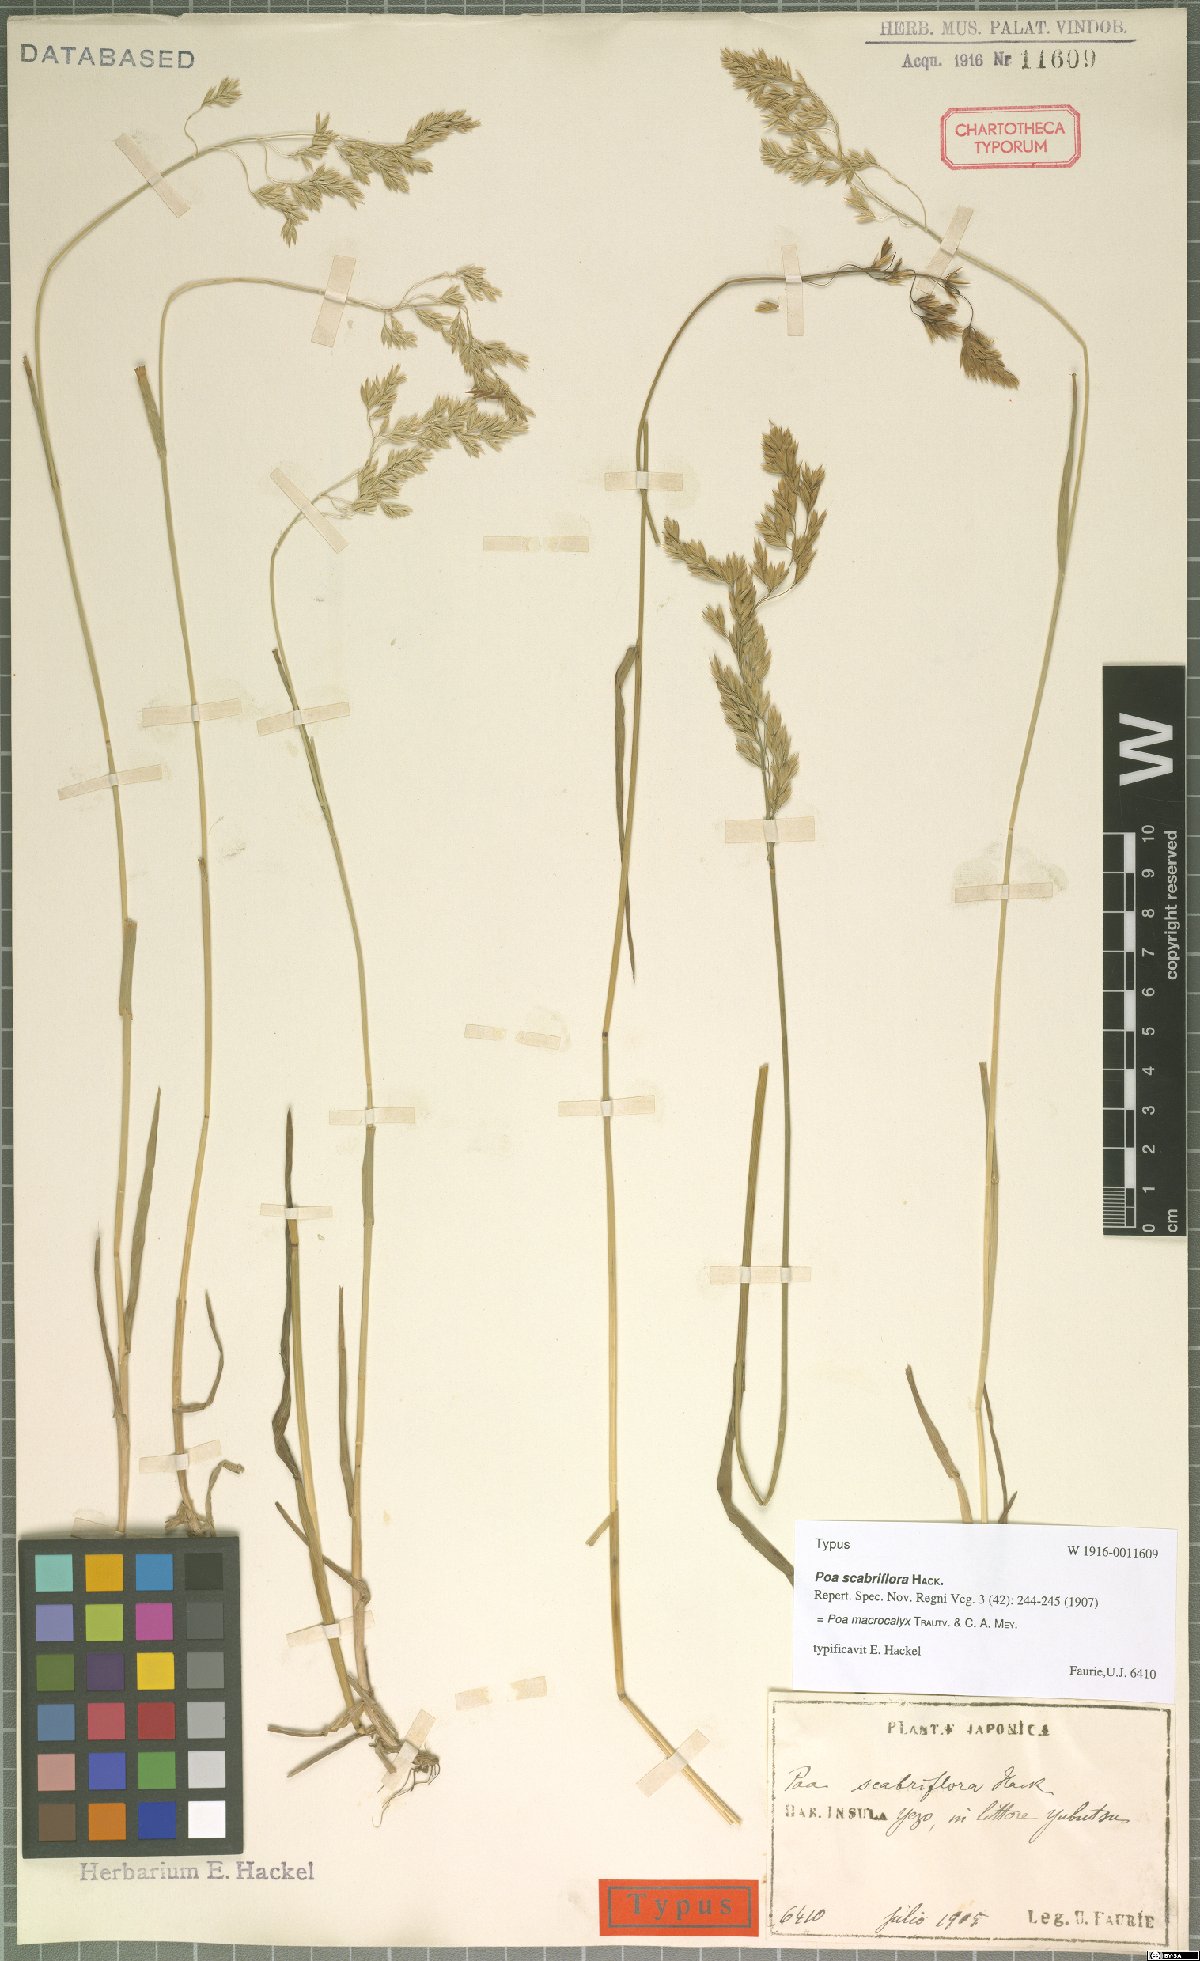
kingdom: Plantae
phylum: Tracheophyta
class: Liliopsida
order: Poales
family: Poaceae
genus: Poa
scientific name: Poa macrocalyx
